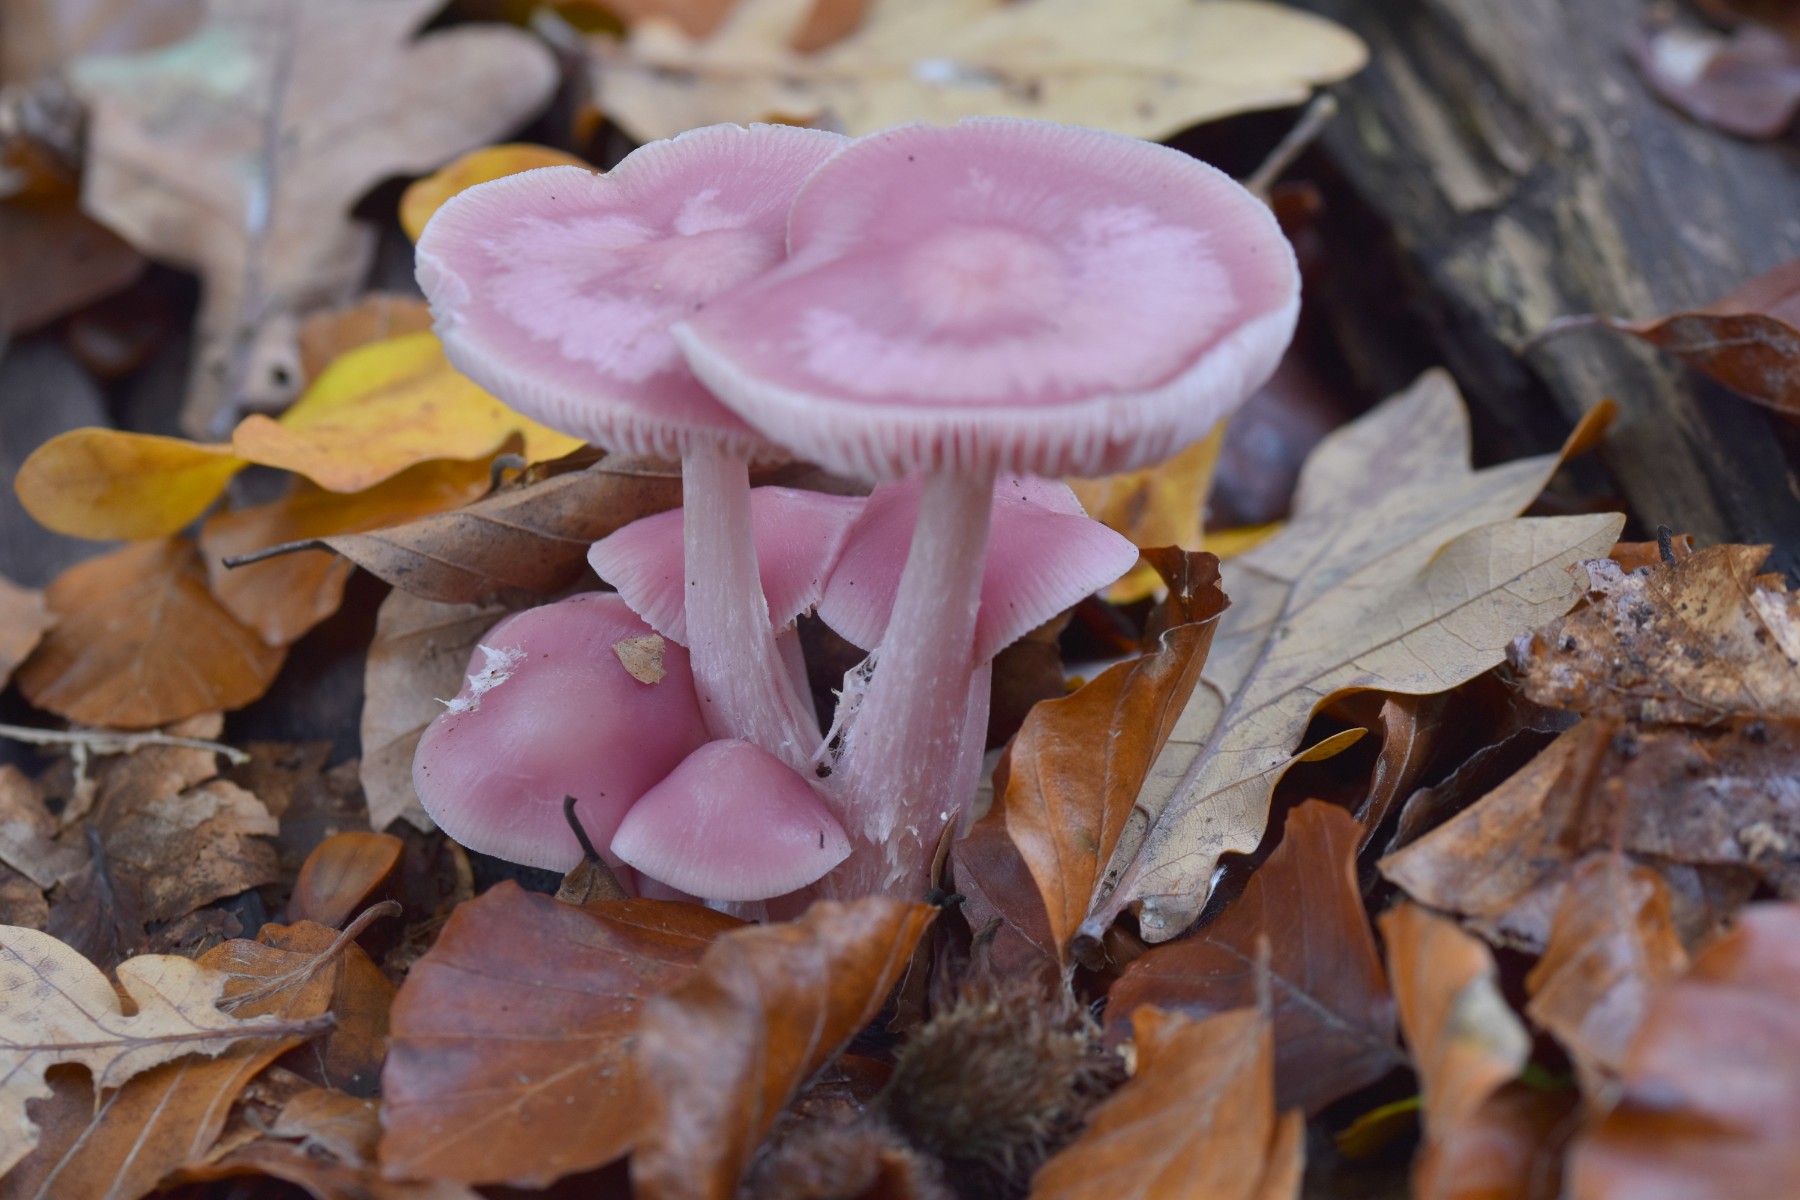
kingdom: Fungi
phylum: Basidiomycota
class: Agaricomycetes
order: Agaricales
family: Mycenaceae
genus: Mycena
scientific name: Mycena rosea
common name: rosa huesvamp
